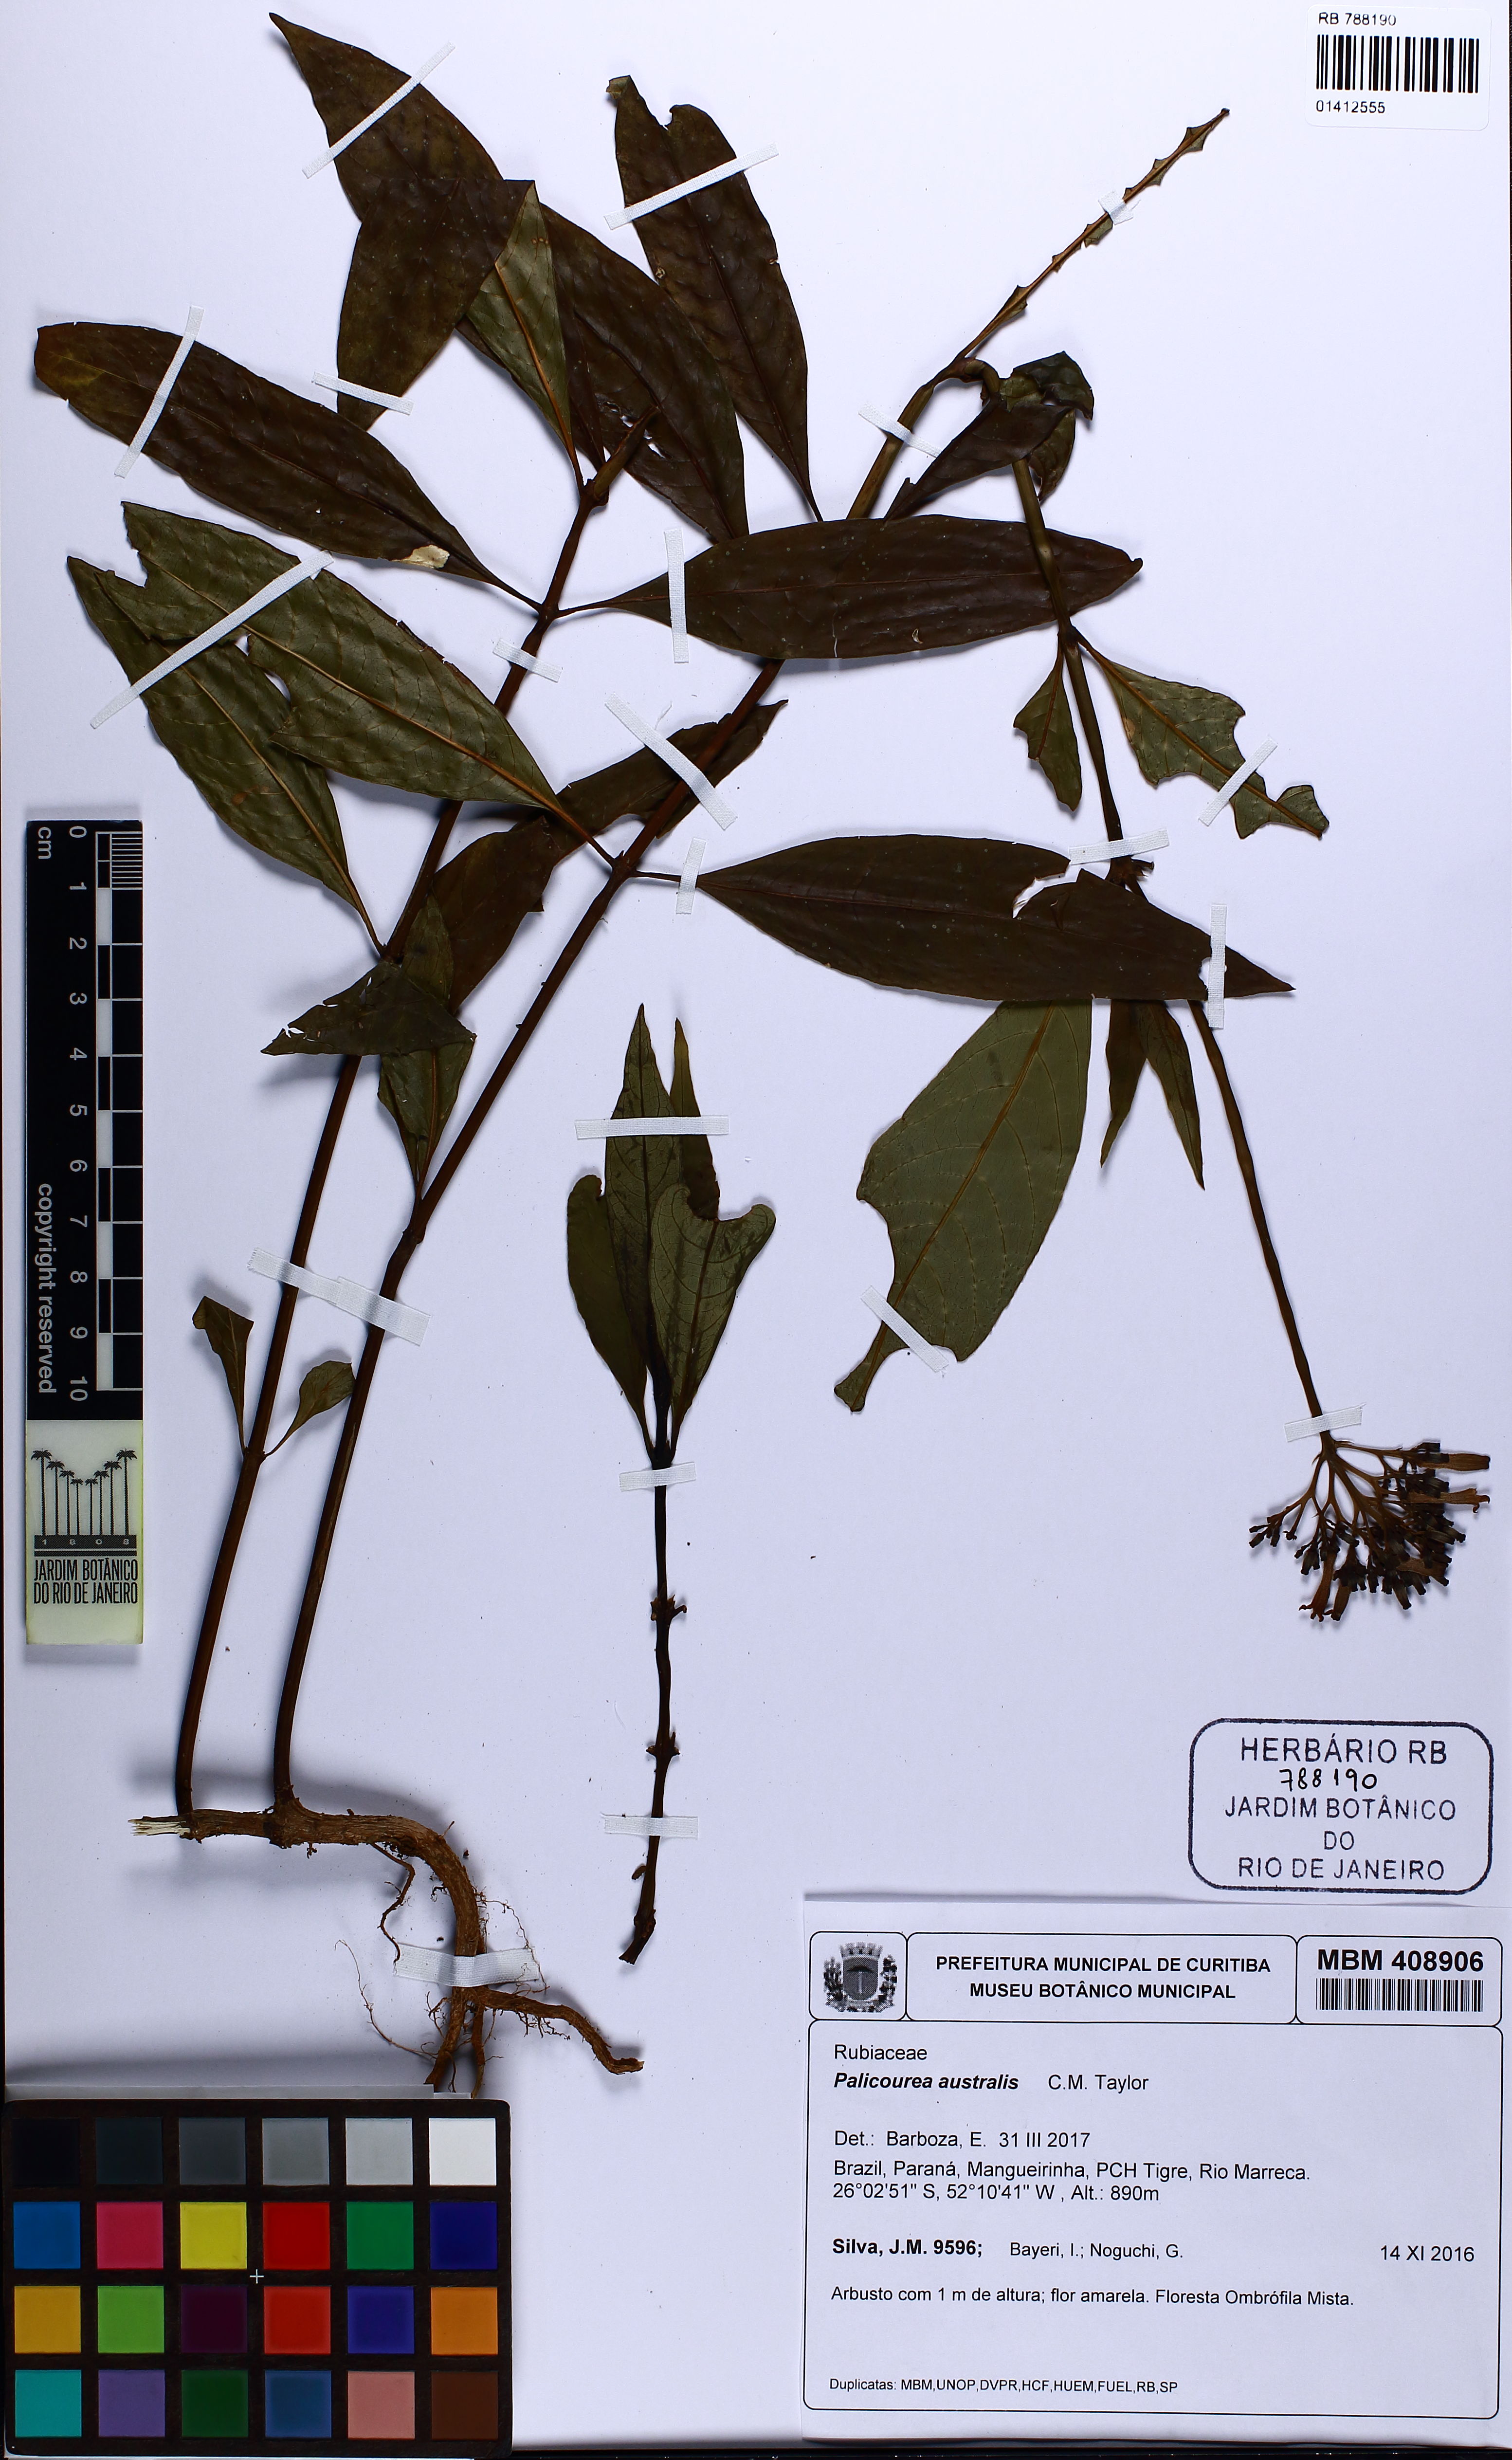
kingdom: Plantae
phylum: Tracheophyta
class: Magnoliopsida
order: Gentianales
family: Rubiaceae
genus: Palicourea
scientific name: Palicourea australis
